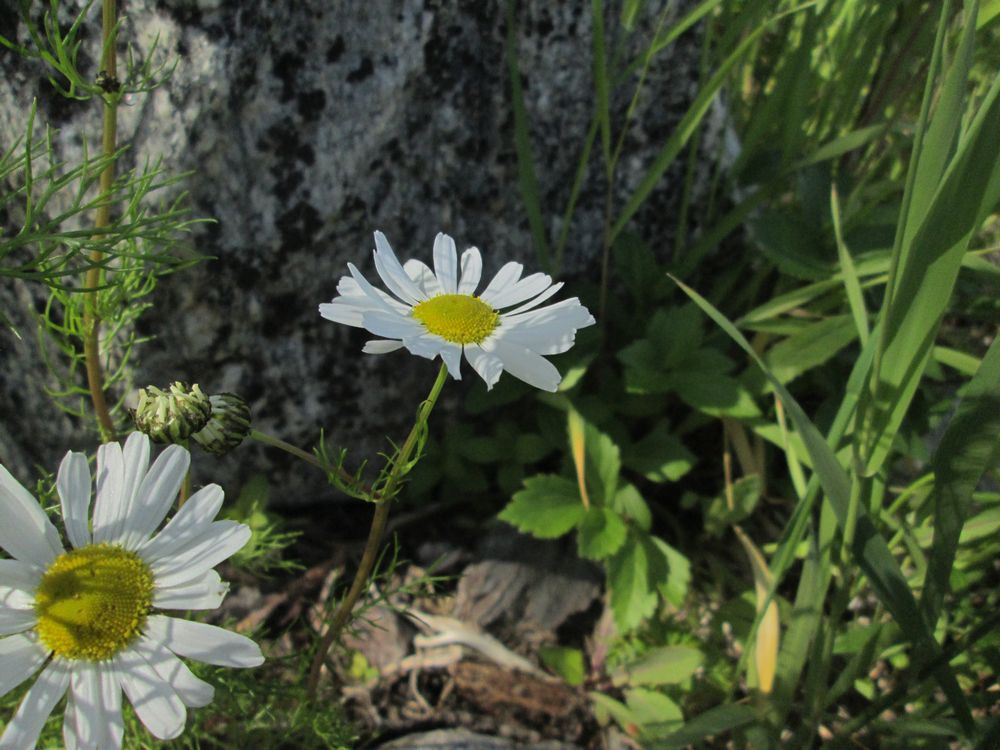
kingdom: Plantae
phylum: Tracheophyta
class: Magnoliopsida
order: Asterales
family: Asteraceae
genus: Tripleurospermum
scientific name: Tripleurospermum
